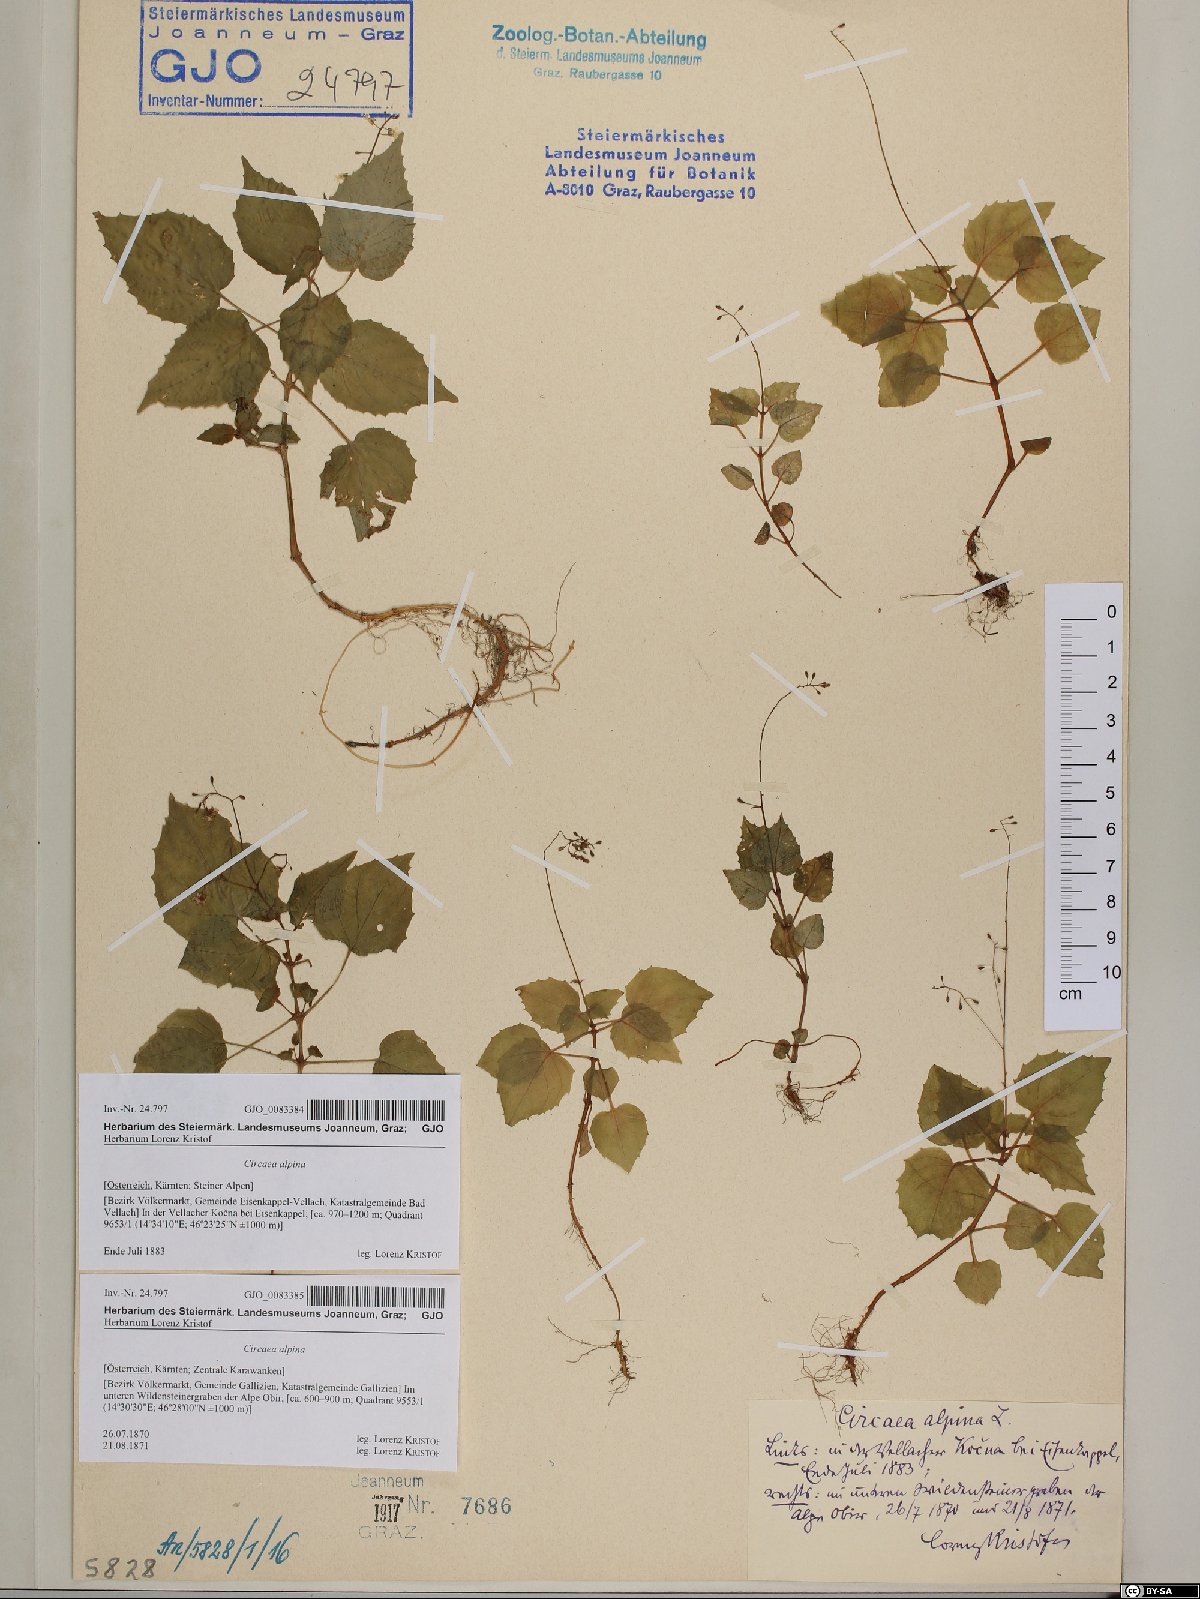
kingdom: Plantae
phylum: Tracheophyta
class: Magnoliopsida
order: Myrtales
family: Onagraceae
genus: Circaea
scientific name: Circaea alpina
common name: Alpine enchanter's-nightshade
